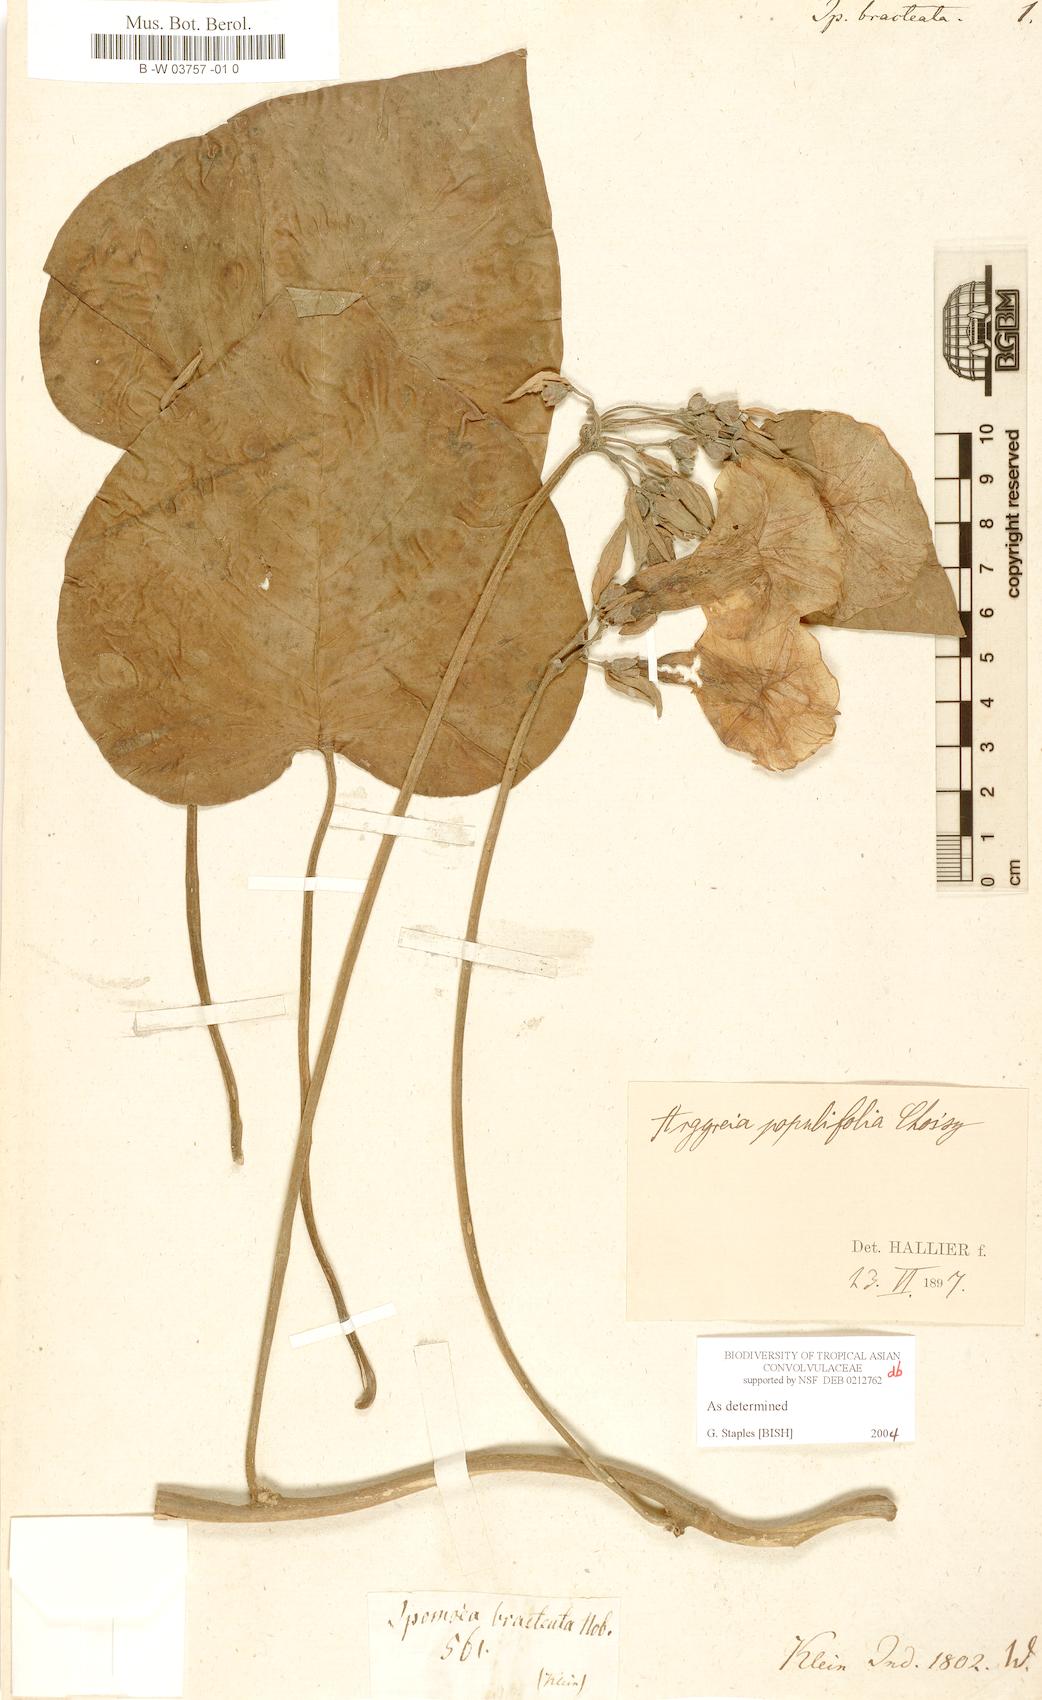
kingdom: Plantae
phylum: Tracheophyta
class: Magnoliopsida
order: Solanales
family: Convolvulaceae
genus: Ipomoea
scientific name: Ipomoea bracteata
